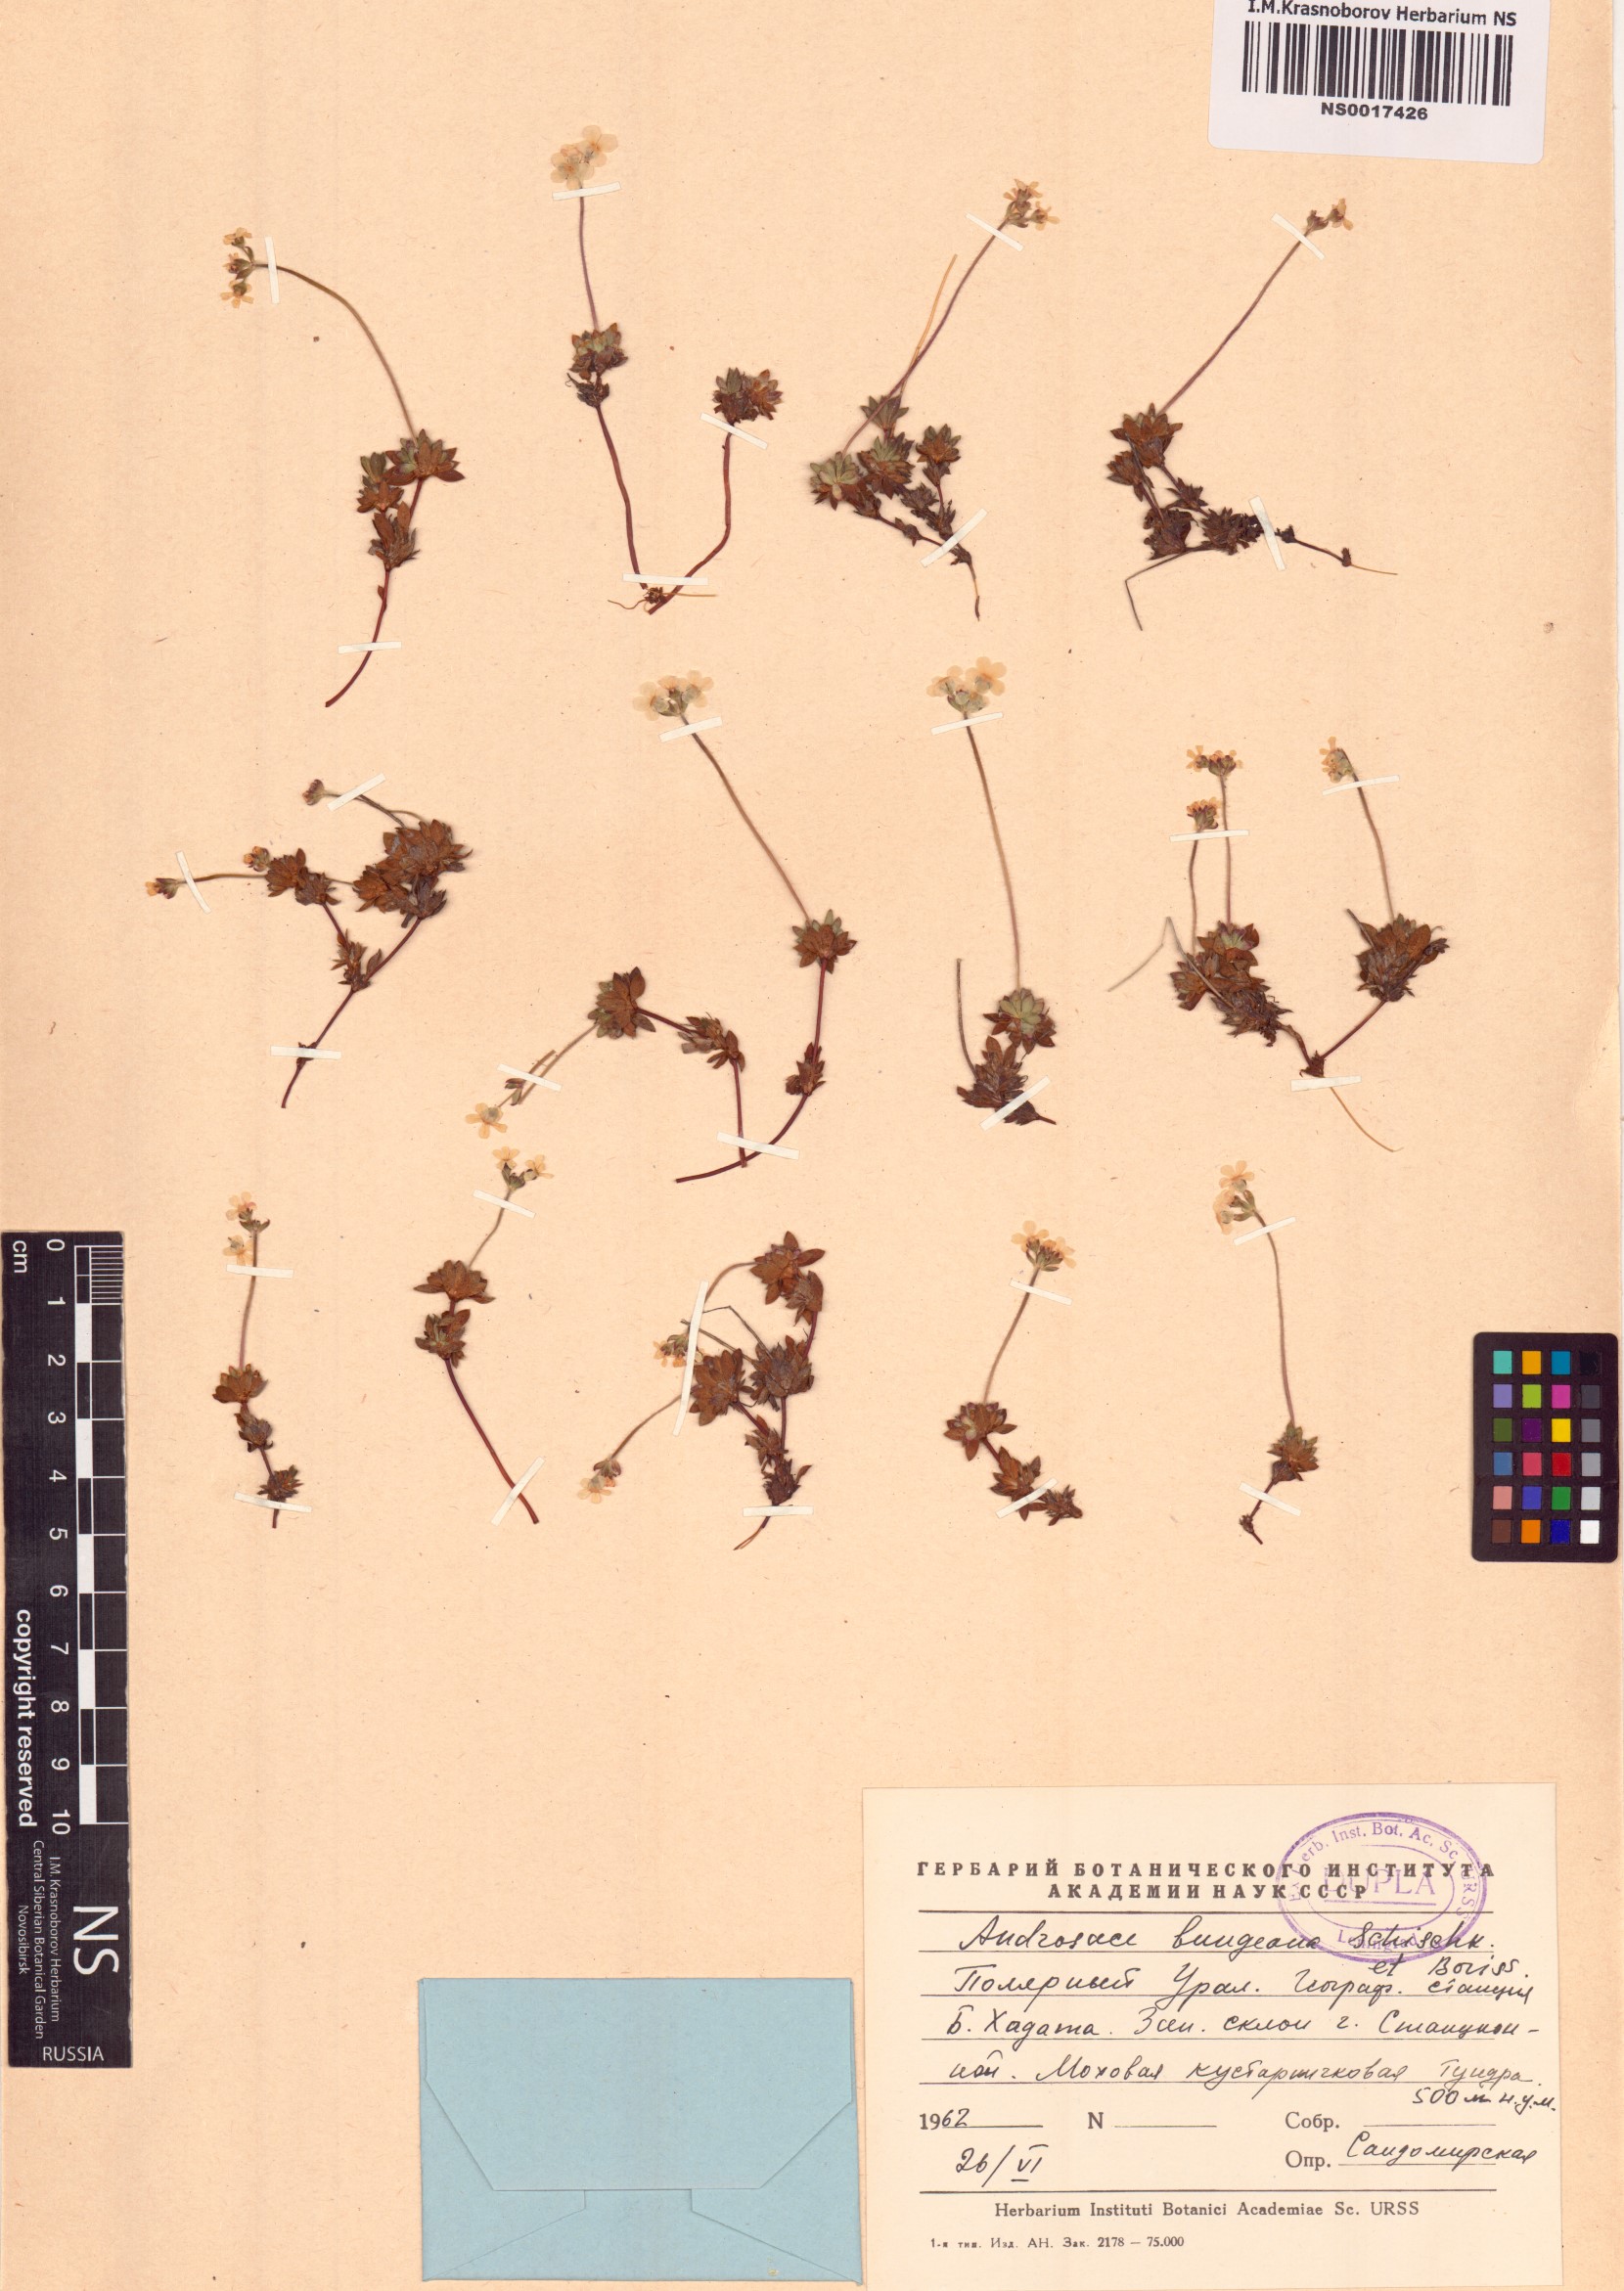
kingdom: Plantae
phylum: Tracheophyta
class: Magnoliopsida
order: Ericales
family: Primulaceae
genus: Androsace
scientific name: Androsace bungeana
